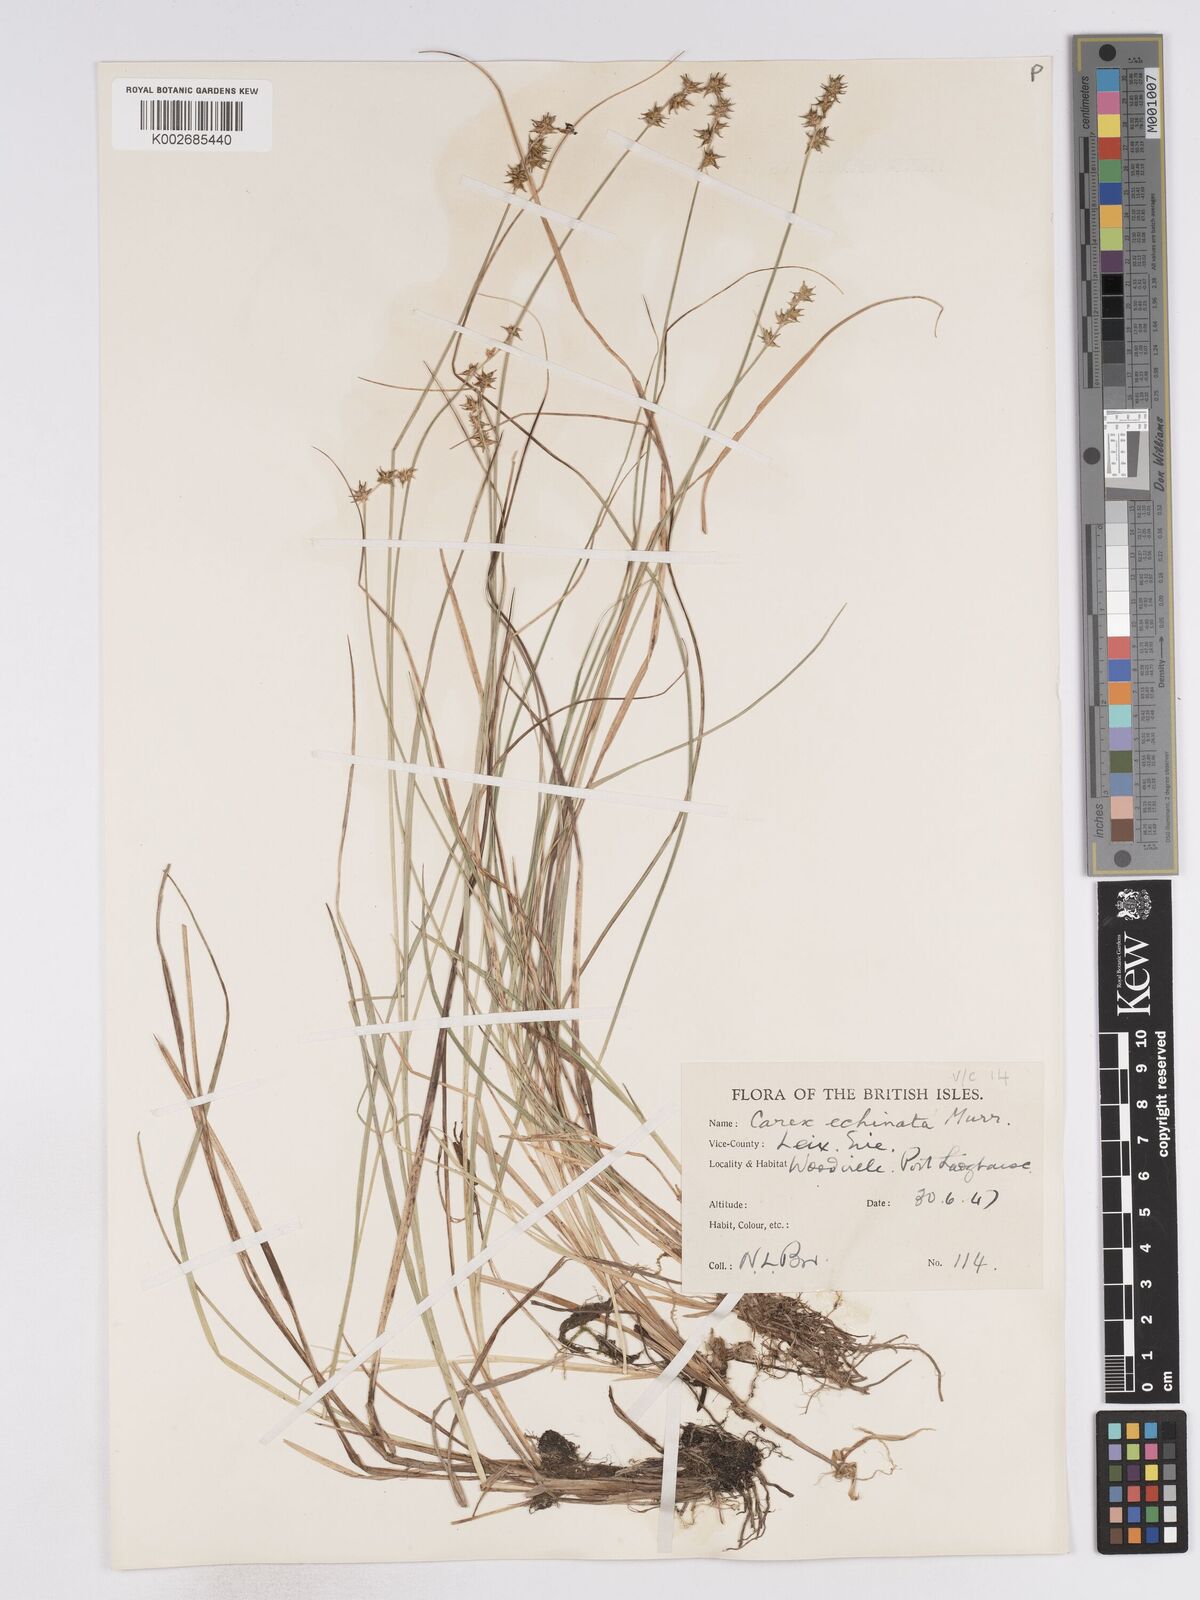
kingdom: Plantae
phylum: Tracheophyta
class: Liliopsida
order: Poales
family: Cyperaceae
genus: Carex
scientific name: Carex echinata
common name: Star sedge
